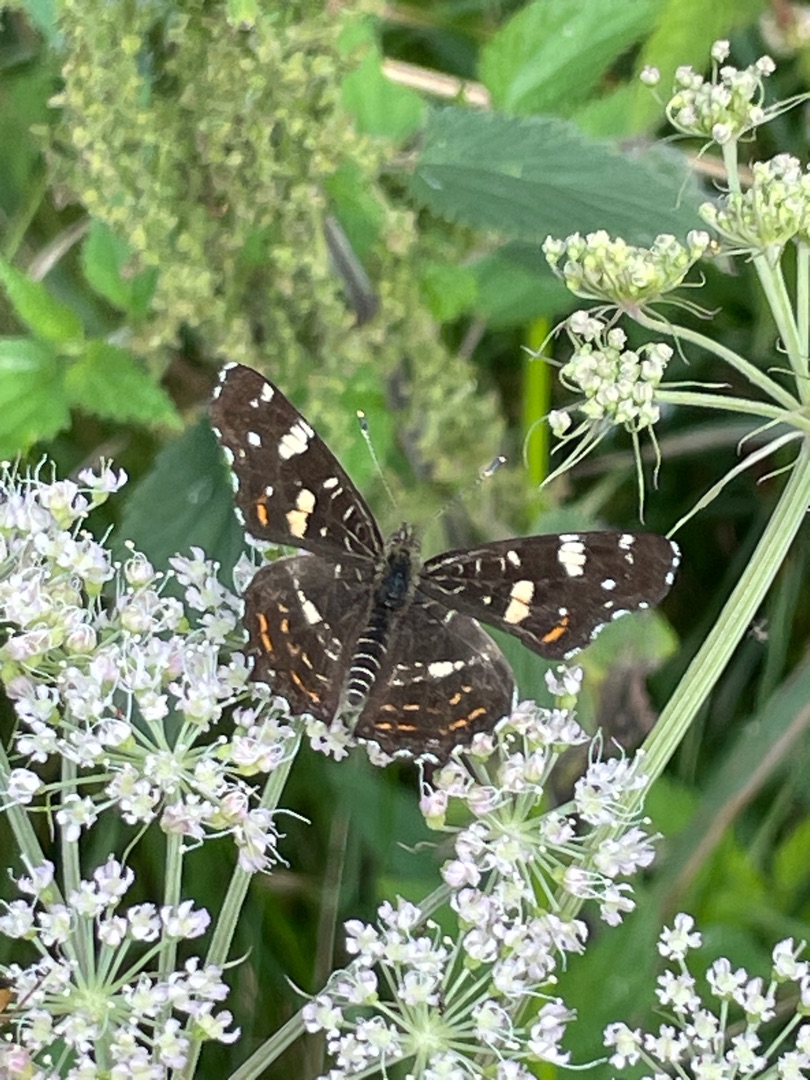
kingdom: Animalia
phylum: Arthropoda
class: Insecta
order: Lepidoptera
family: Nymphalidae
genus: Araschnia
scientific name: Araschnia levana
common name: Nældesommerfugl
